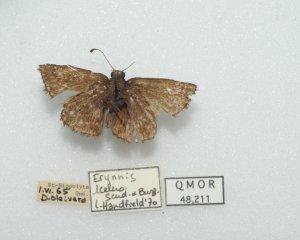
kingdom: Animalia
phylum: Arthropoda
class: Insecta
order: Lepidoptera
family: Hesperiidae
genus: Erynnis
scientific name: Erynnis icelus
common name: Dreamy Duskywing
